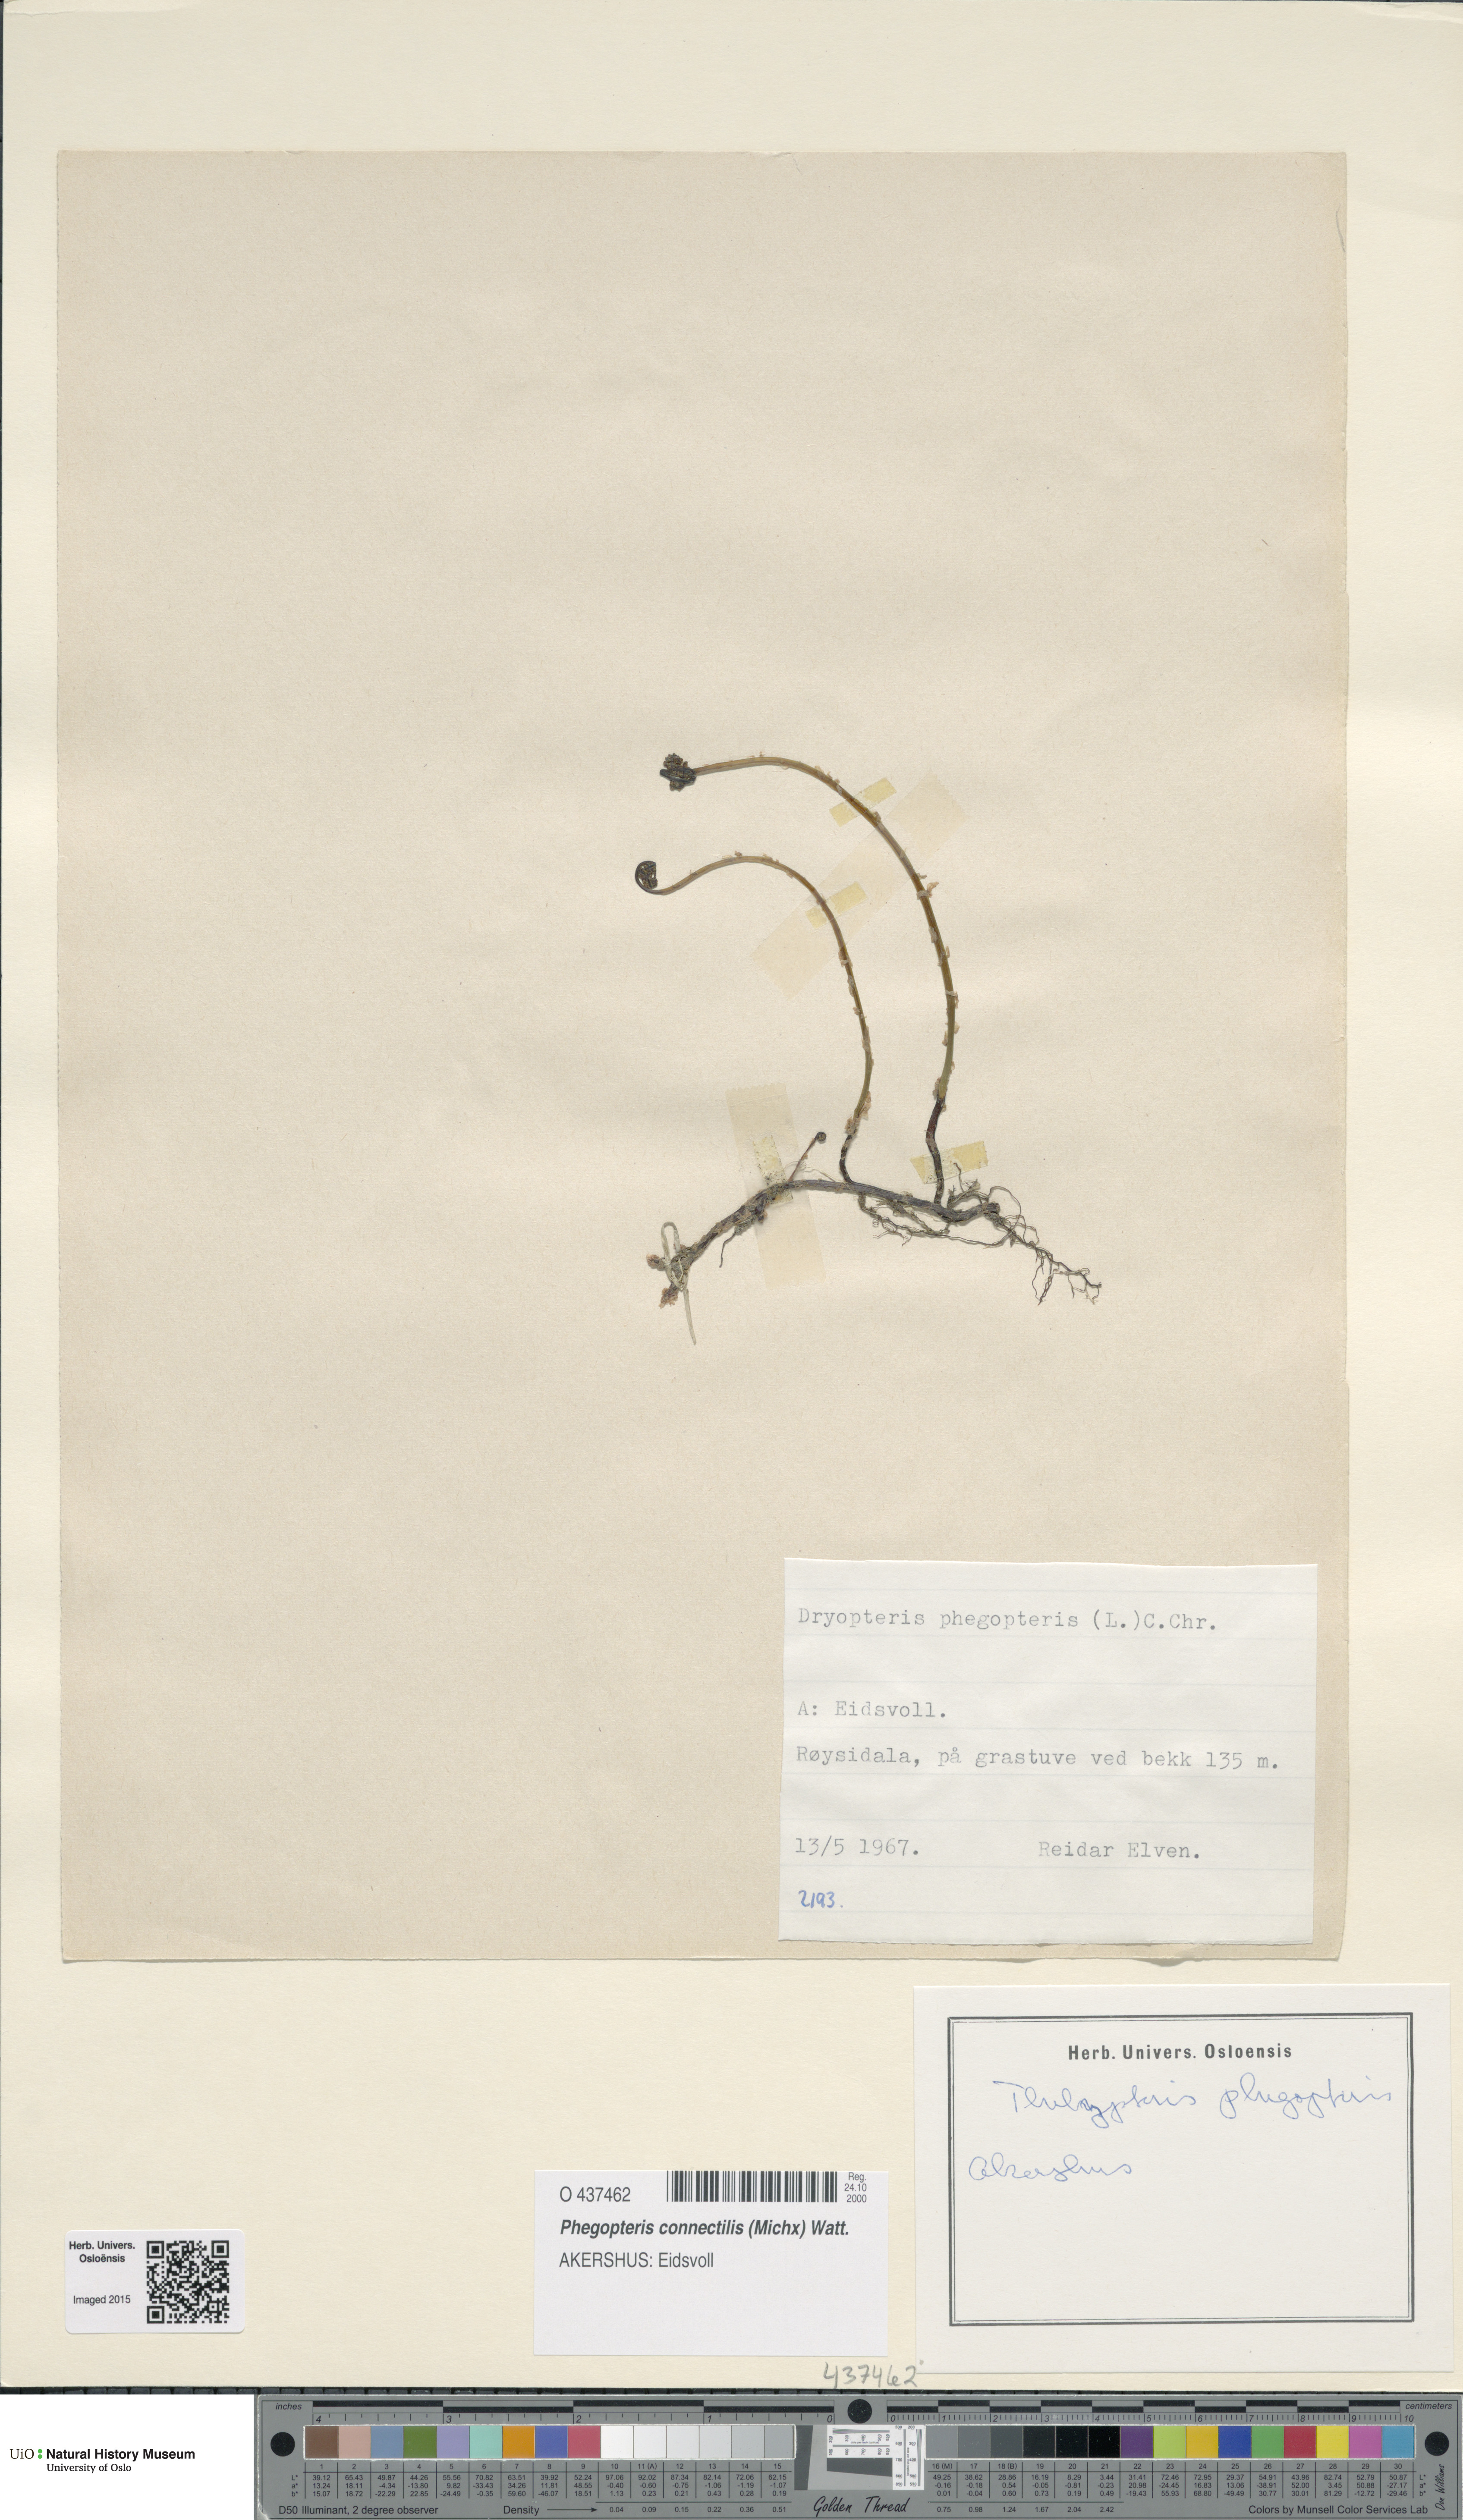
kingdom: Plantae
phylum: Tracheophyta
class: Polypodiopsida
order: Polypodiales
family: Thelypteridaceae
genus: Phegopteris
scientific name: Phegopteris connectilis
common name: Beech fern
